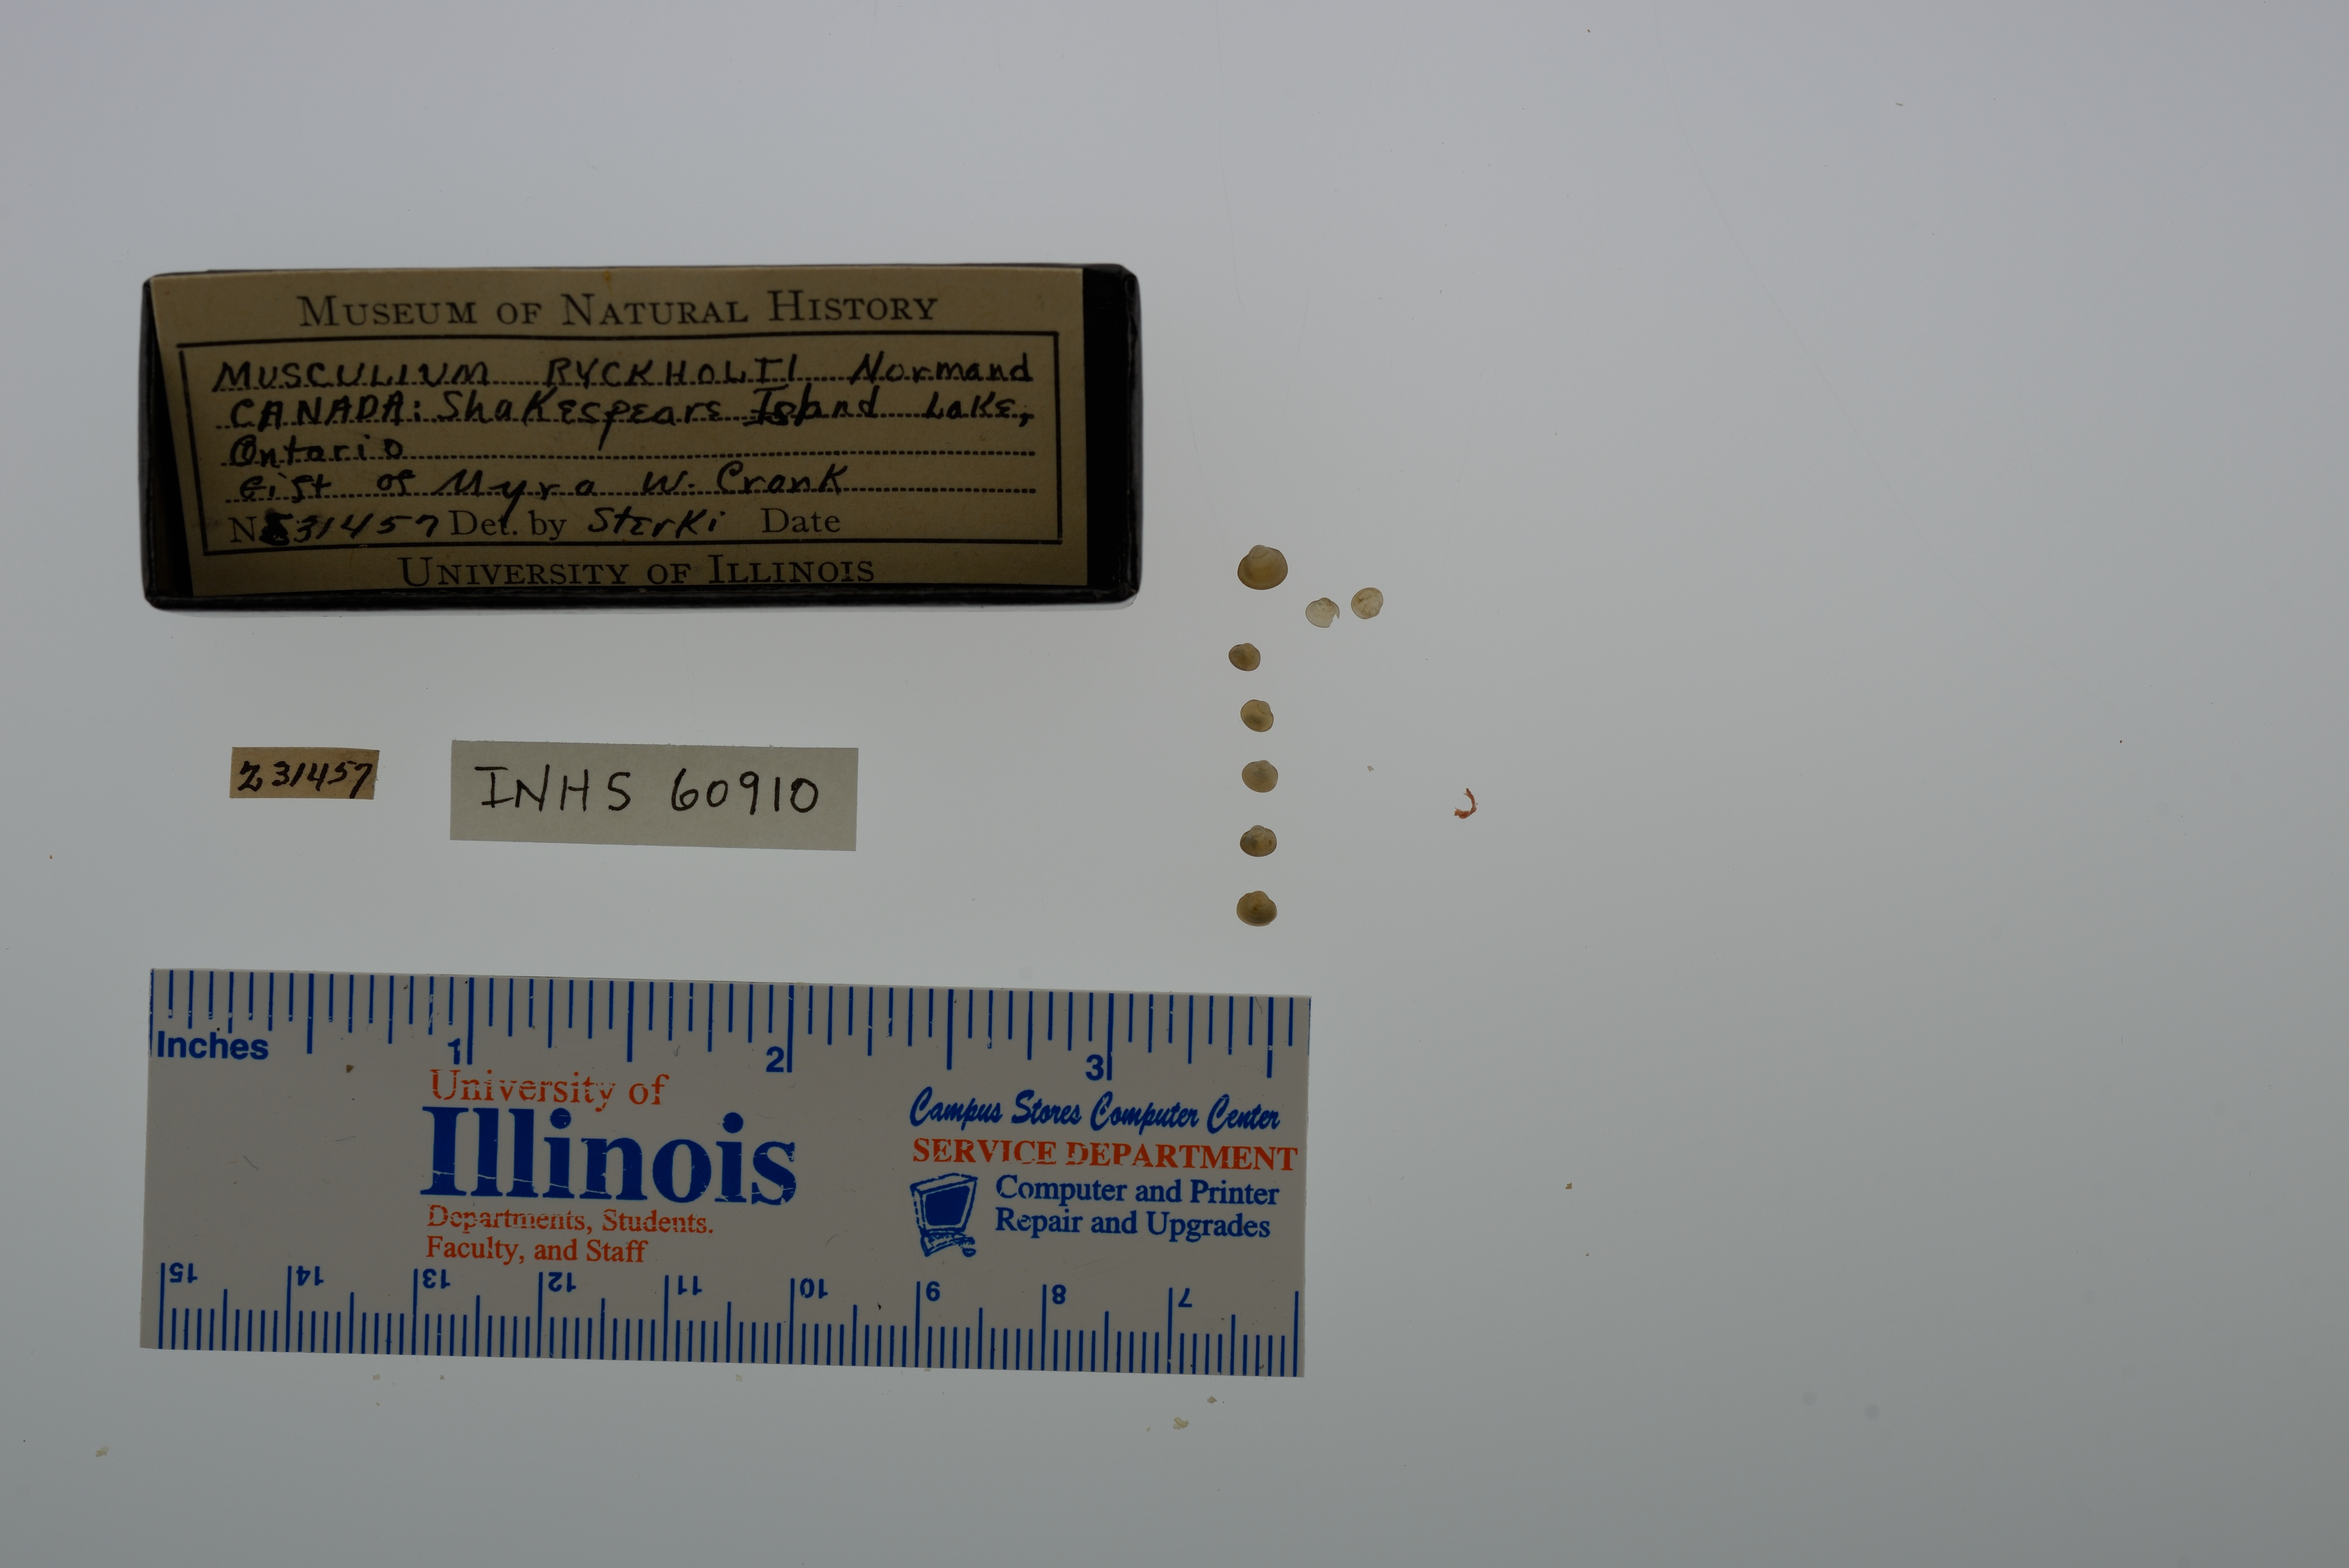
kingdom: Animalia
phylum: Mollusca
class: Bivalvia
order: Sphaeriida
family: Sphaeriidae
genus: Musculium
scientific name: Musculium lacustre
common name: Lake fingernailclam
